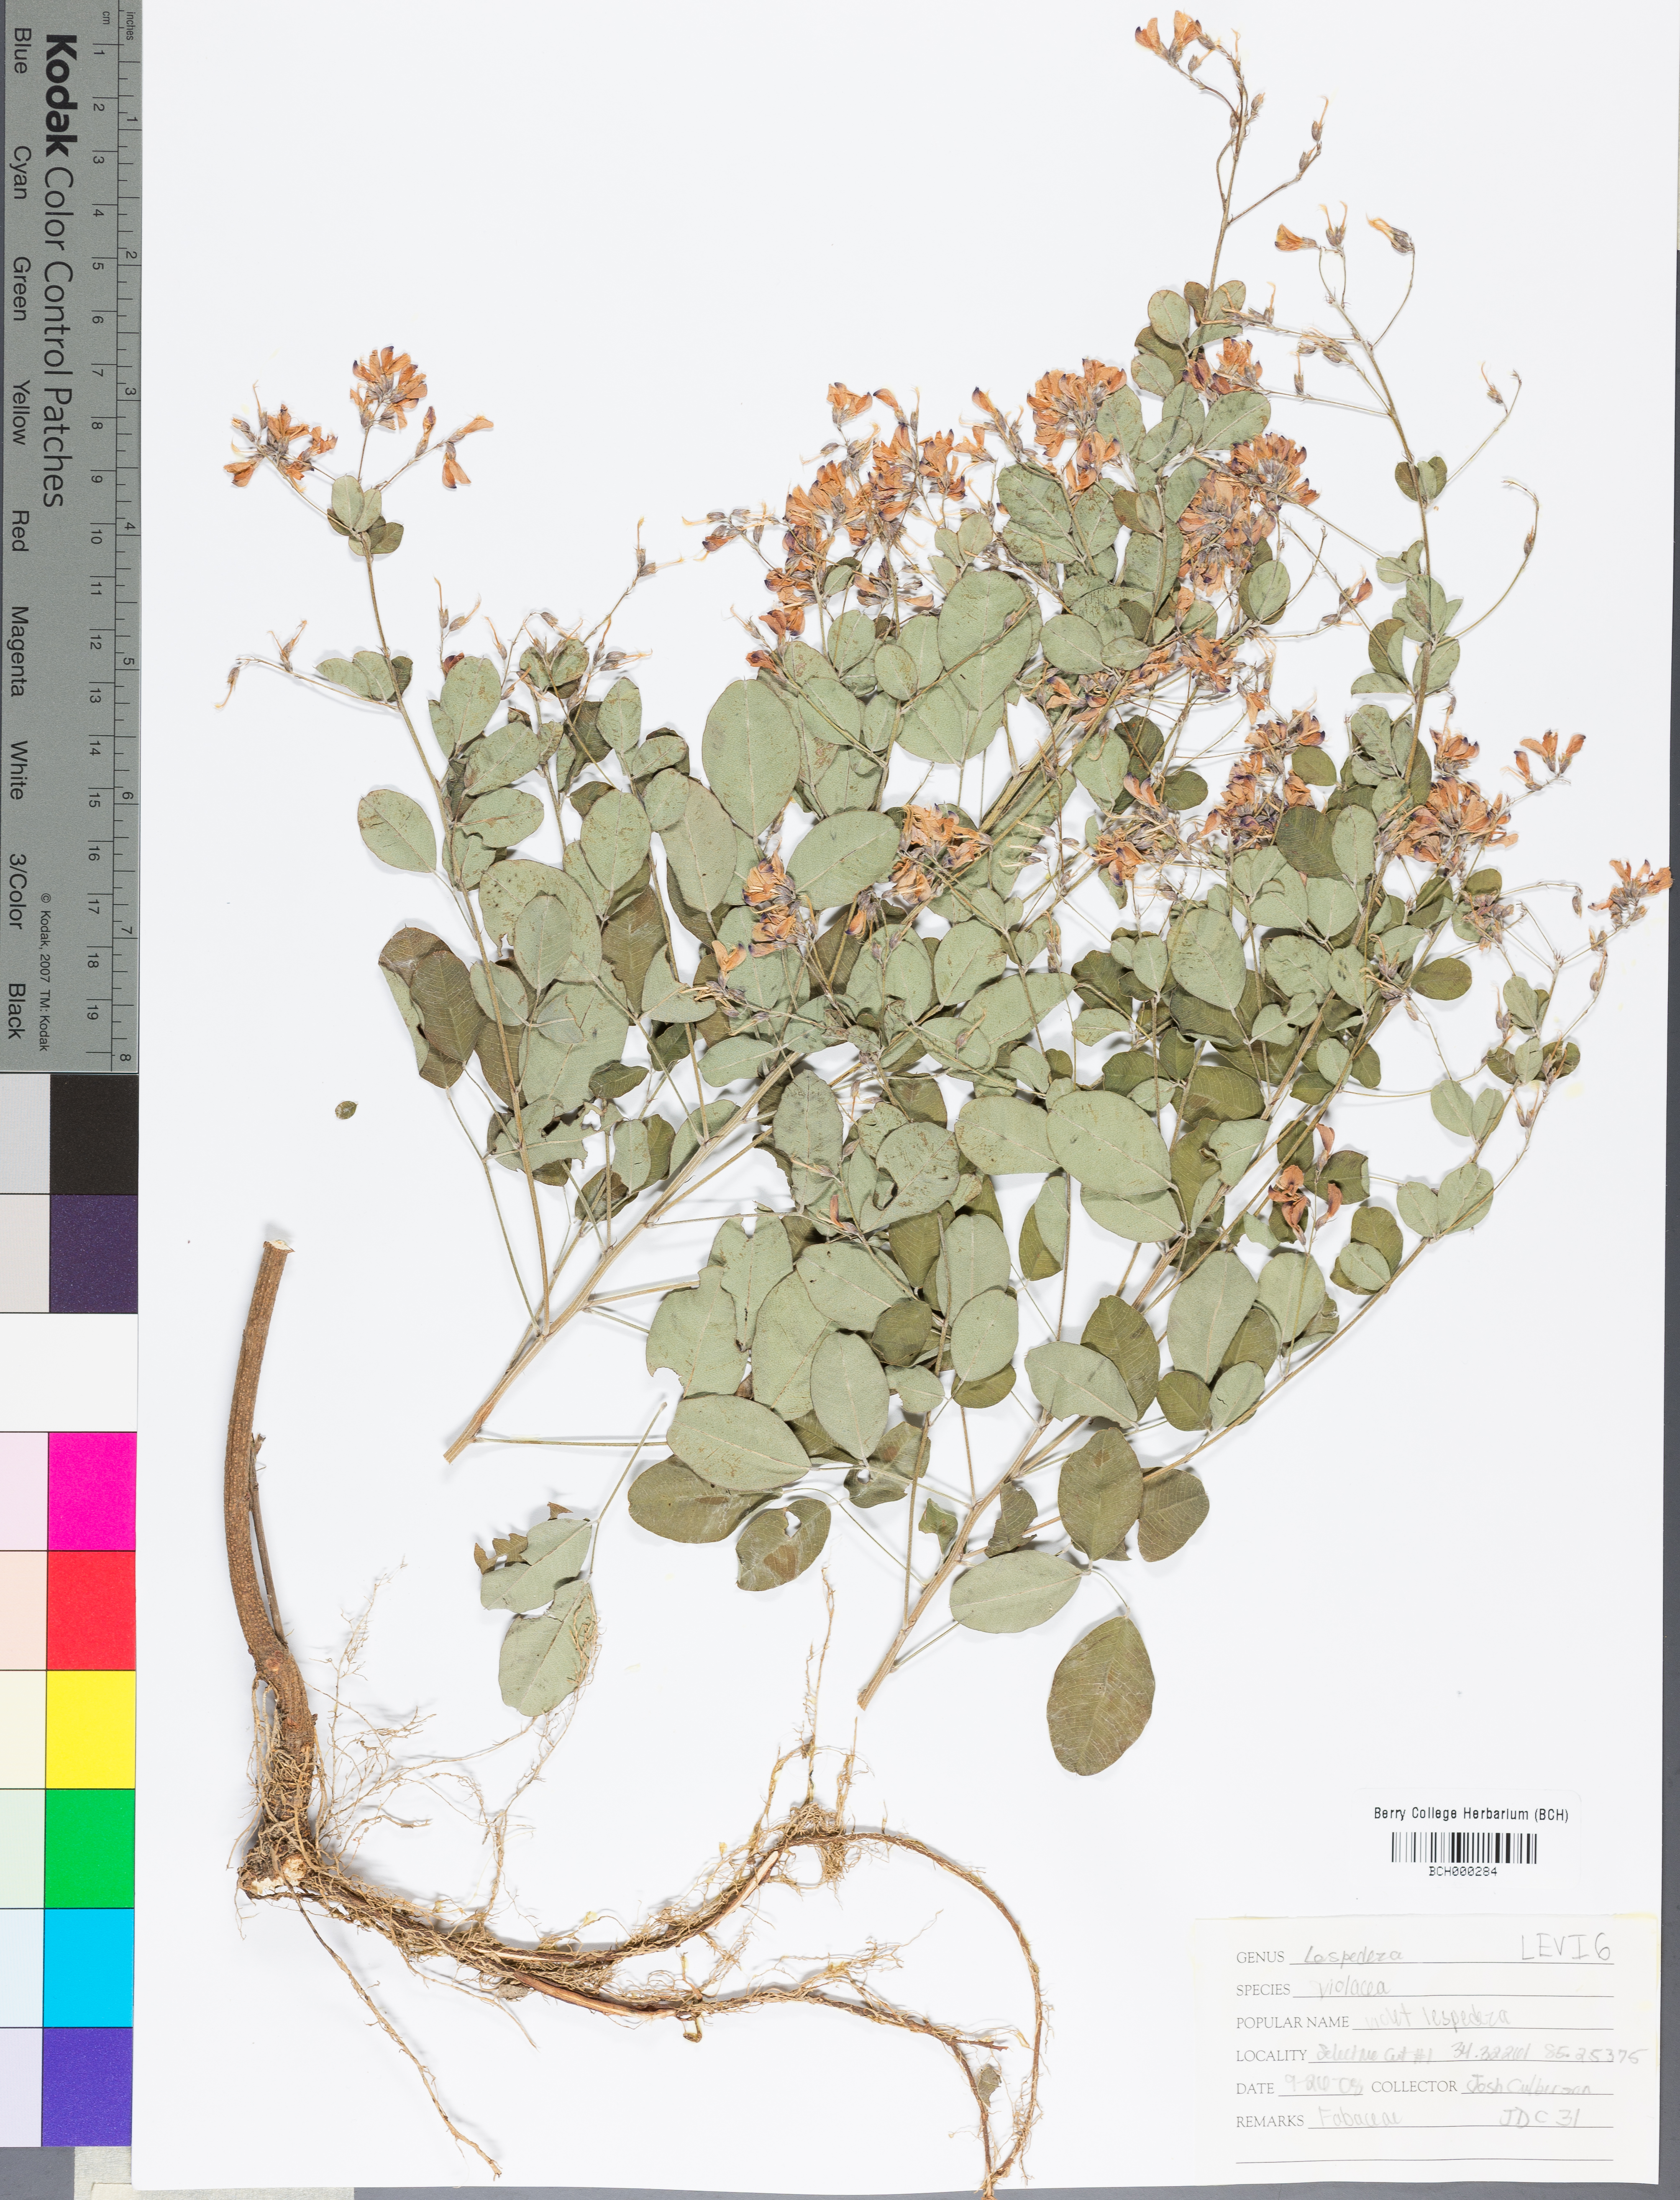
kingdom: Plantae
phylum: Tracheophyta
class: Magnoliopsida
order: Fabales
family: Fabaceae
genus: Lespedeza
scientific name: Lespedeza violacea
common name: Wand bush-clover
